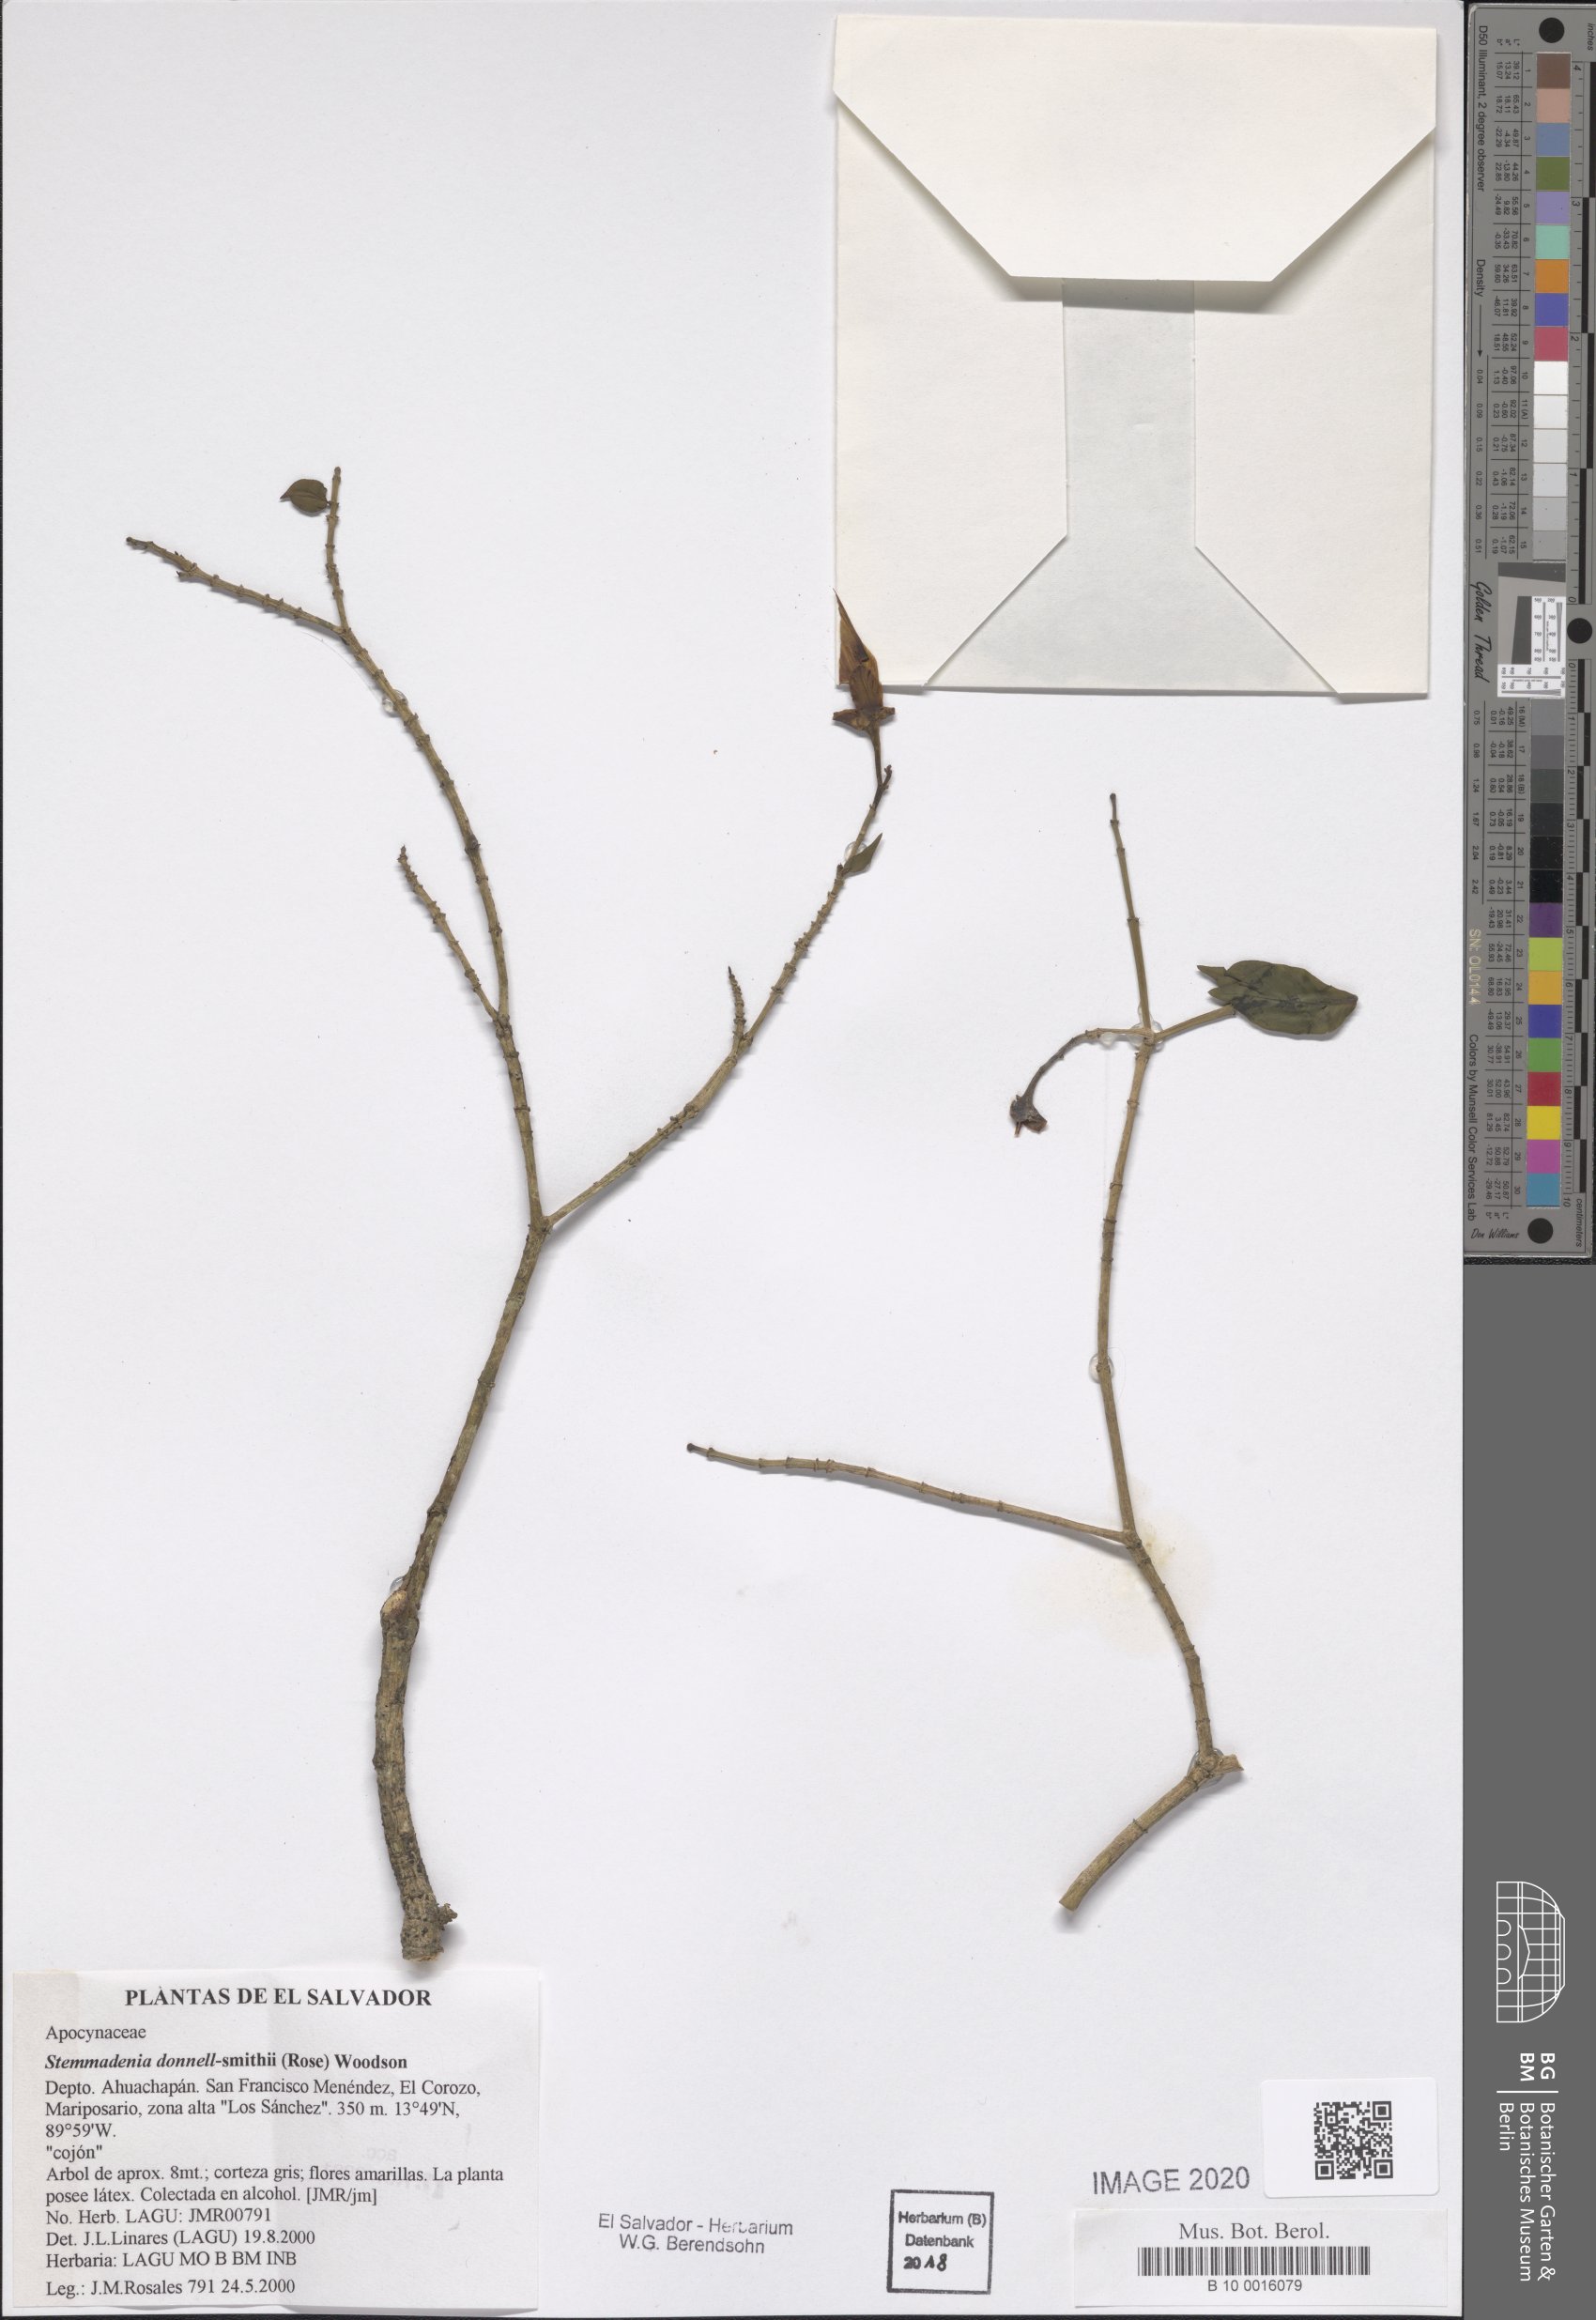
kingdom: Plantae
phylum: Tracheophyta
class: Magnoliopsida
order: Gentianales
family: Apocynaceae
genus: Tabernaemontana
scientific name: Tabernaemontana donnell-smithii
